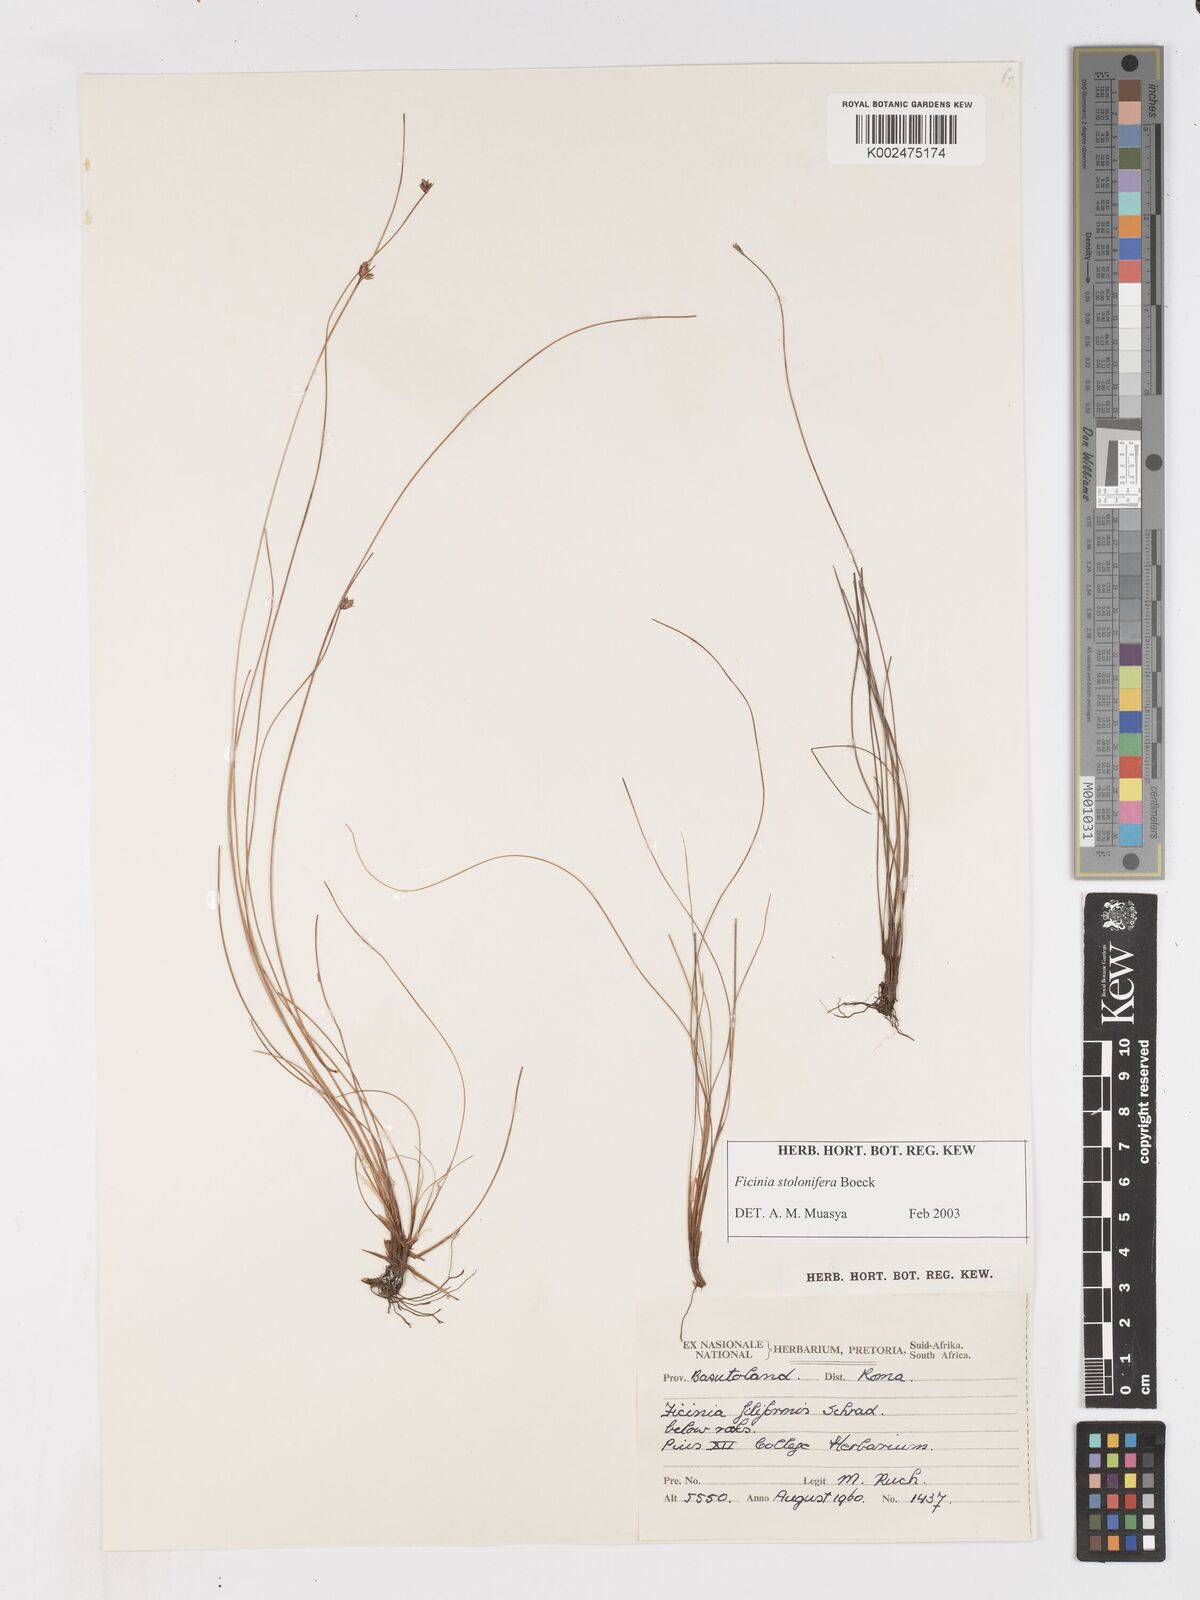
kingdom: Plantae
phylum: Tracheophyta
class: Liliopsida
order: Poales
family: Cyperaceae
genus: Ficinia
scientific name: Ficinia stolonifera
